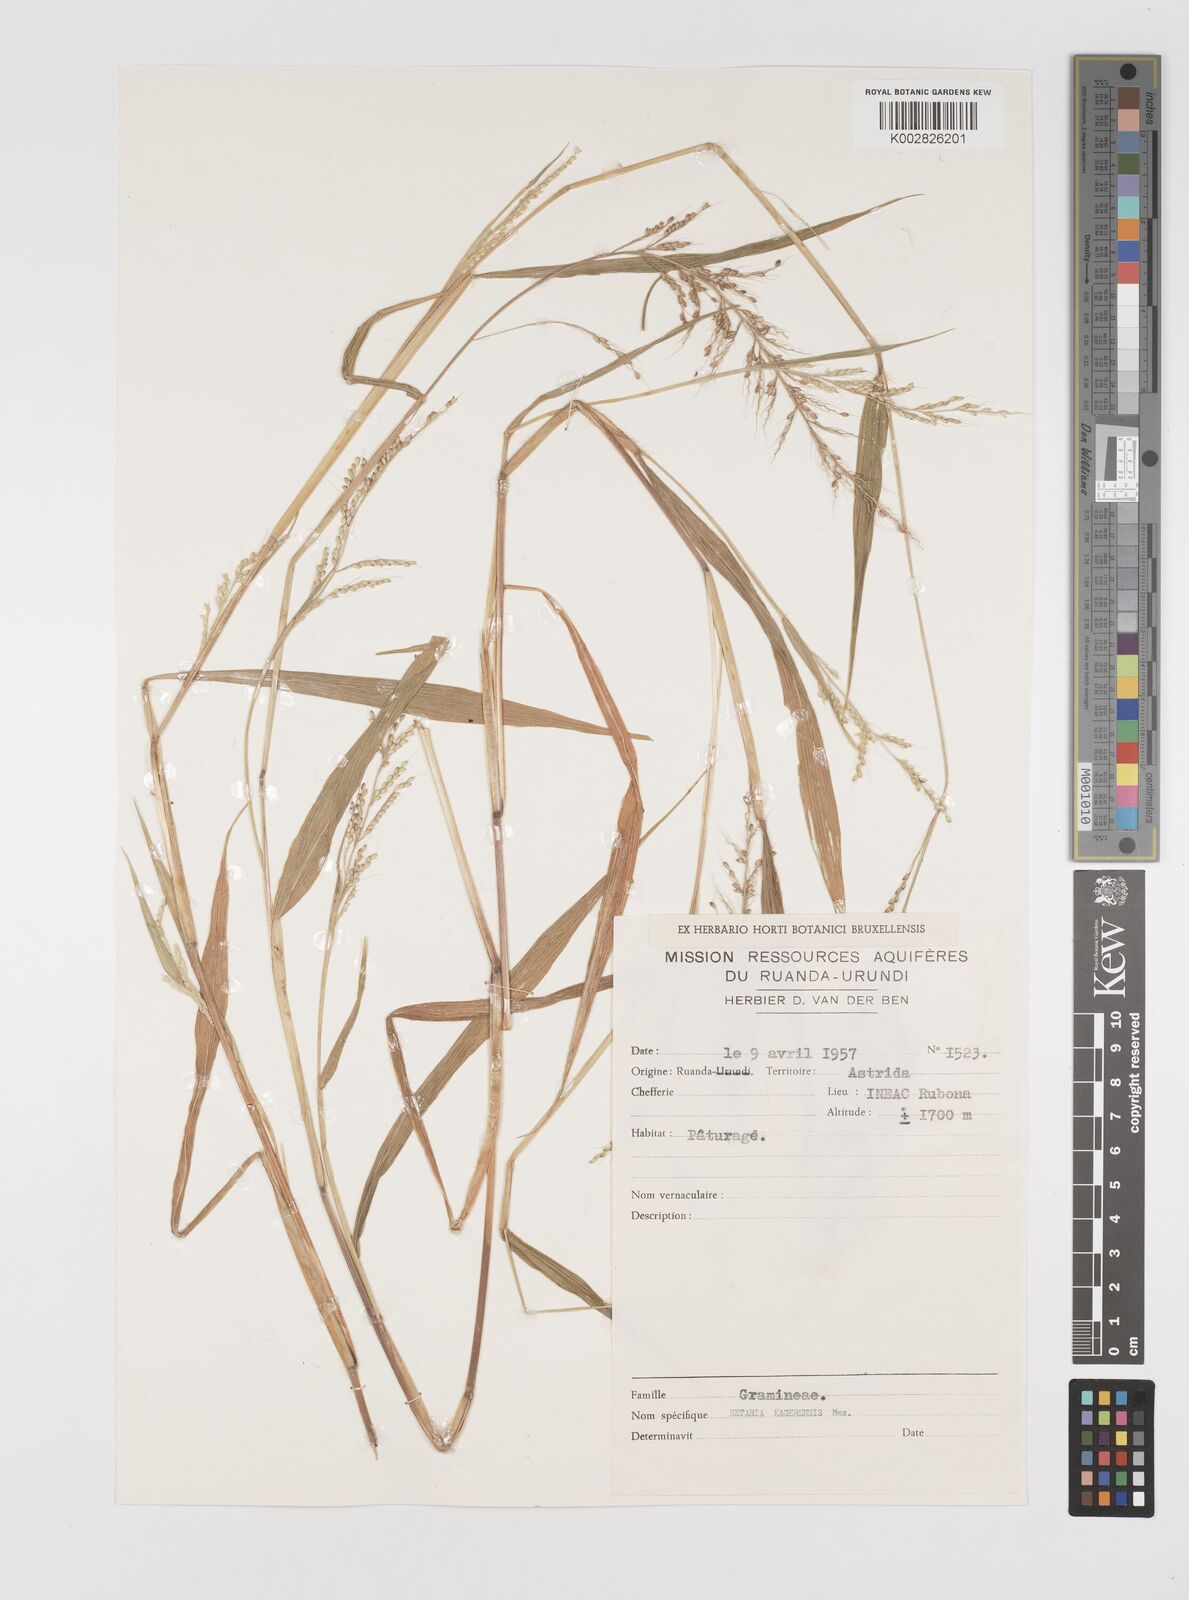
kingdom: Plantae
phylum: Tracheophyta
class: Liliopsida
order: Poales
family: Poaceae
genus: Setaria
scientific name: Setaria homonyma
